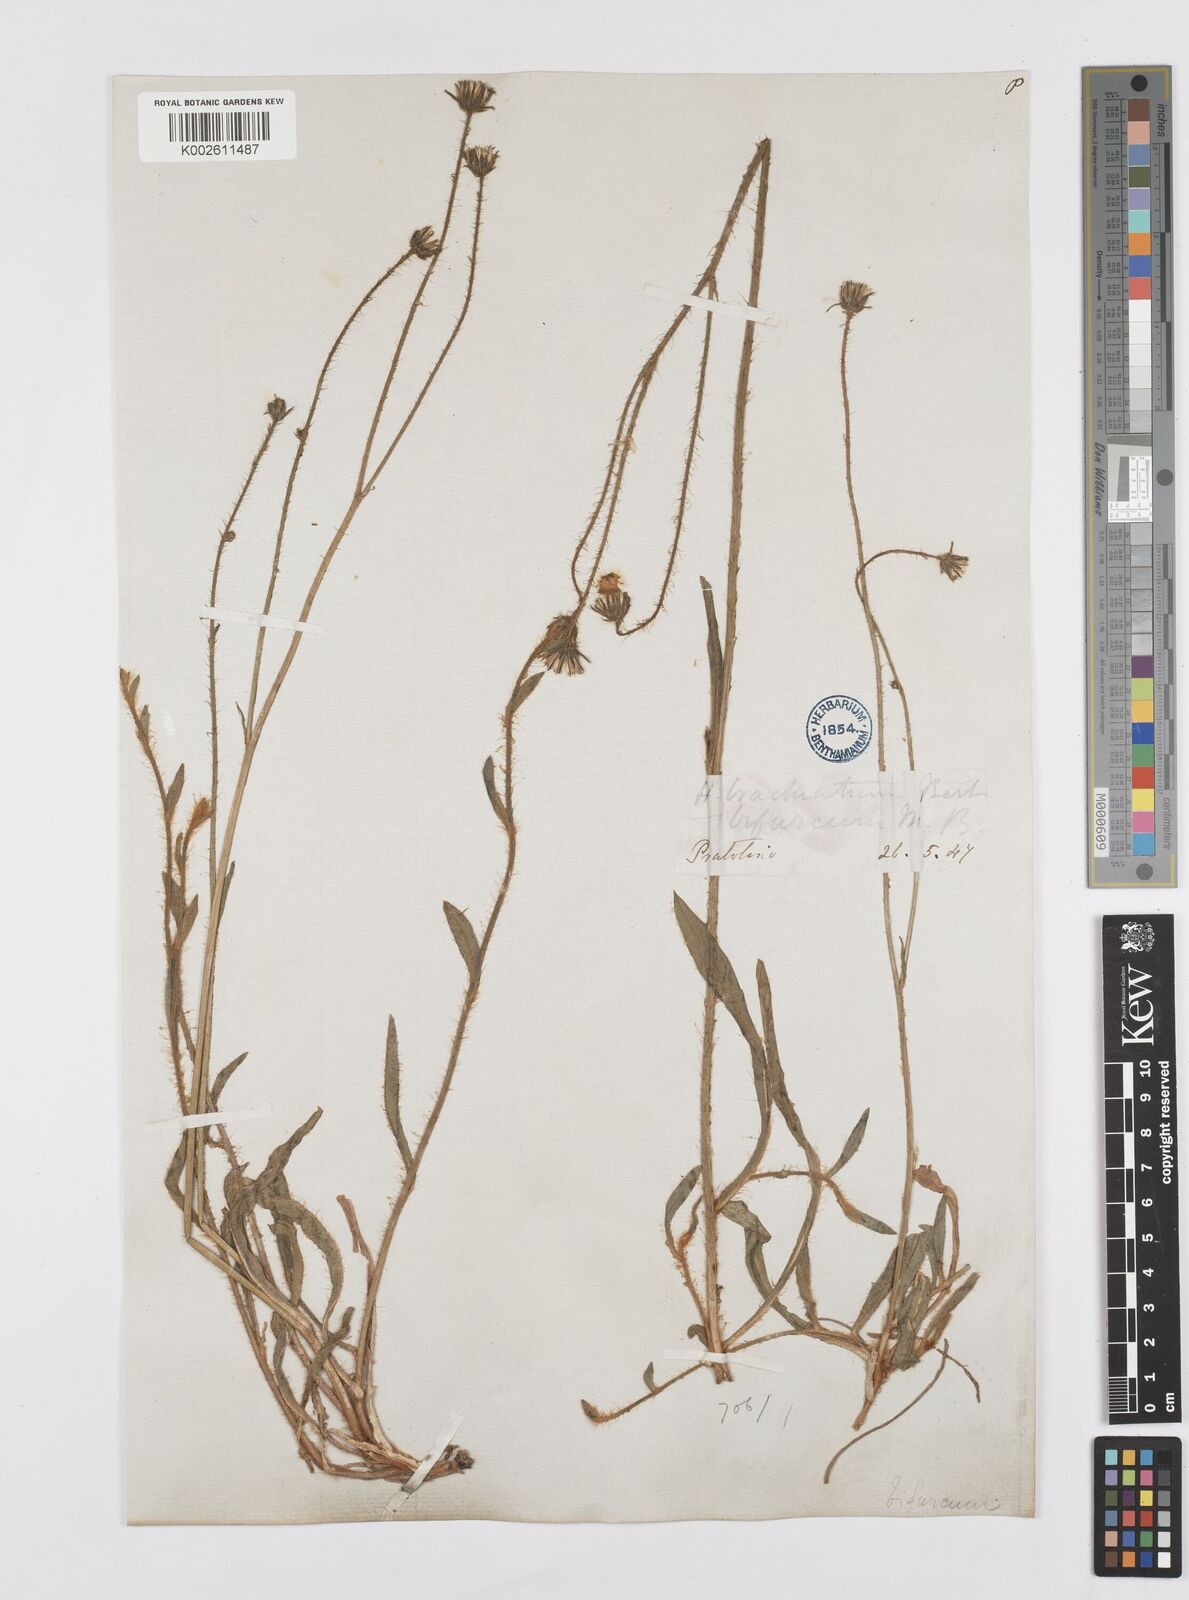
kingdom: Plantae
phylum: Tracheophyta
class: Magnoliopsida
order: Asterales
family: Asteraceae
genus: Pilosella
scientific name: Pilosella acutifolia
